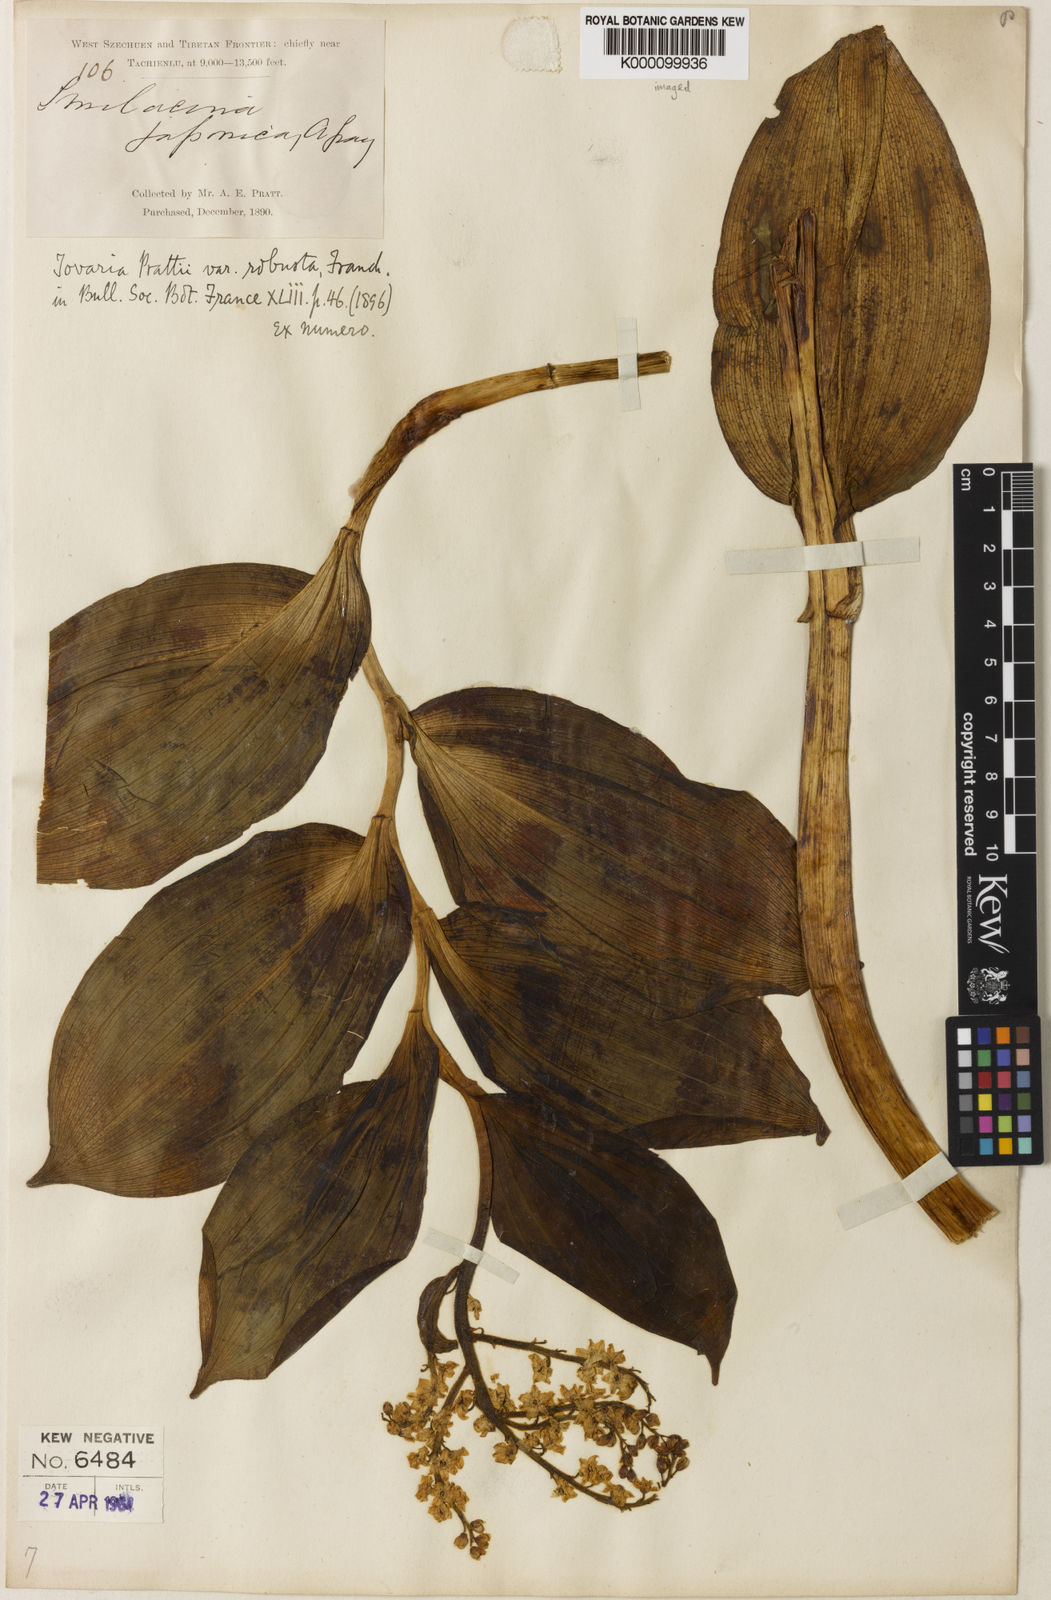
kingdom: Plantae
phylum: Tracheophyta
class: Liliopsida
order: Asparagales
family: Asparagaceae
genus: Maianthemum
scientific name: Maianthemum
